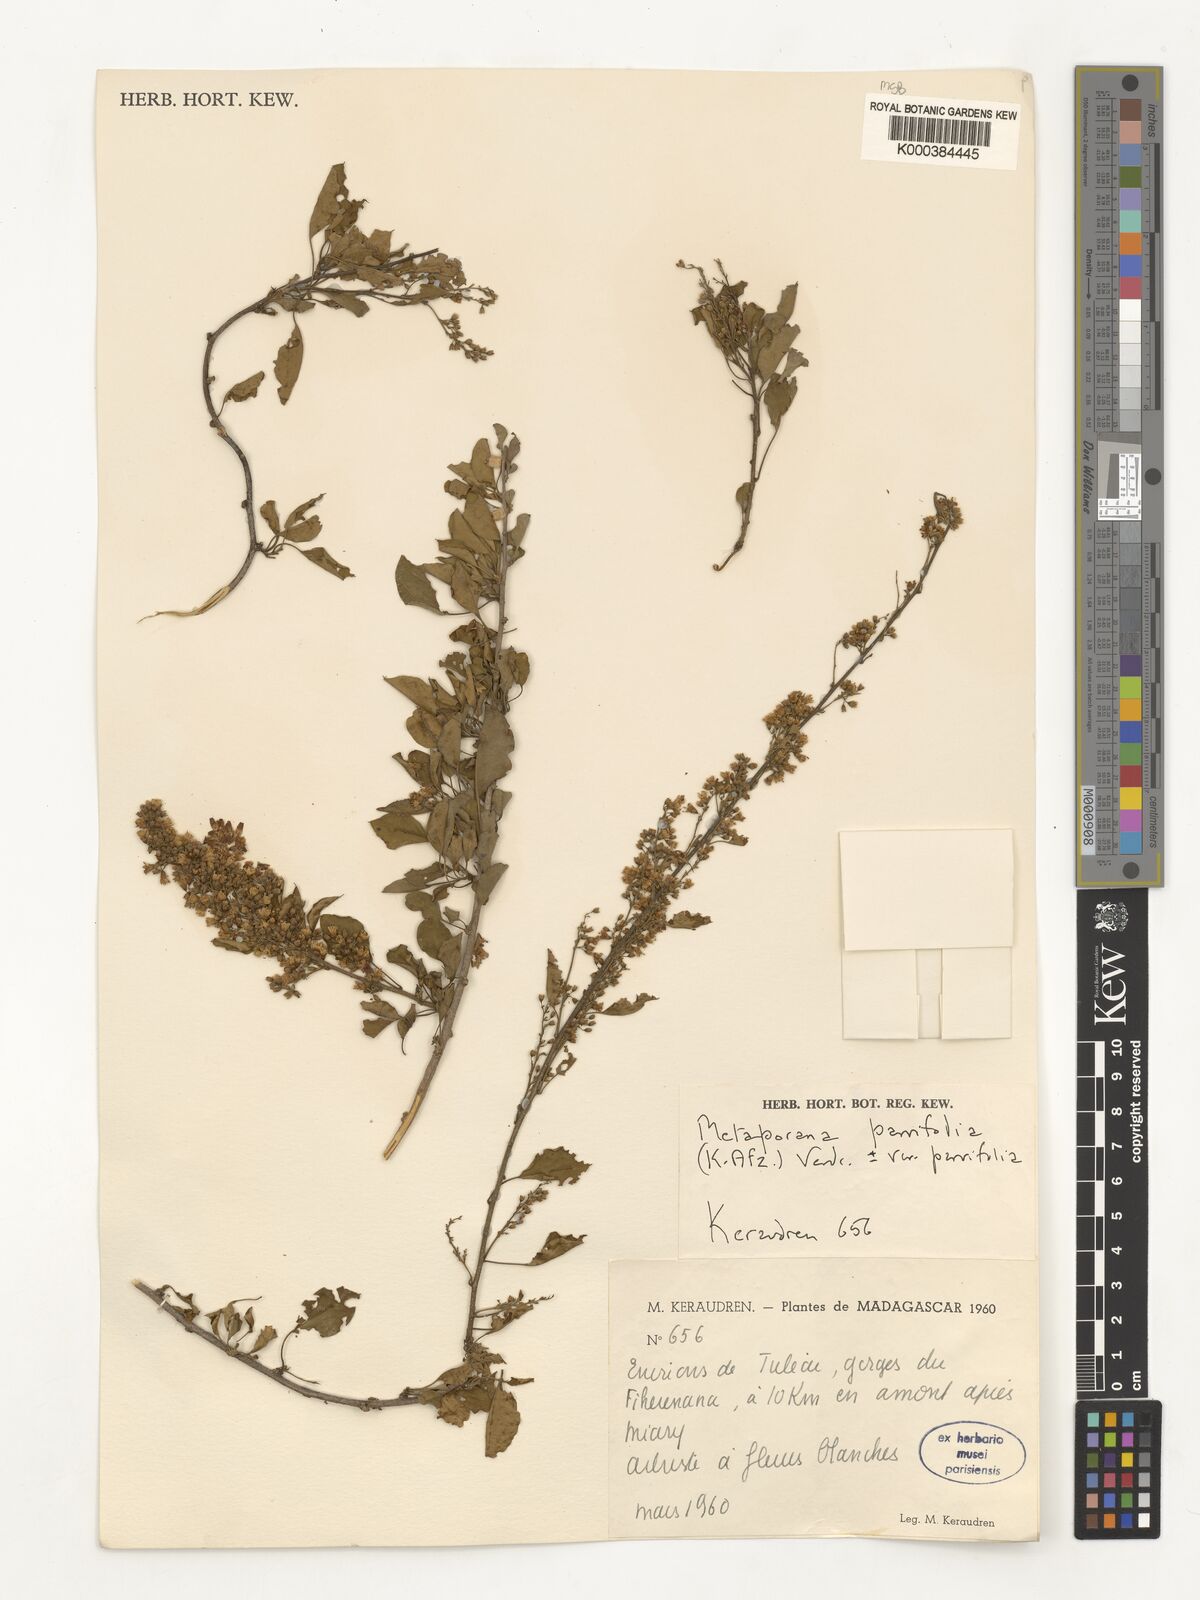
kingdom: Plantae
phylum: Tracheophyta
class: Magnoliopsida
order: Solanales
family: Convolvulaceae
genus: Metaporana
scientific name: Metaporana parvifolia
